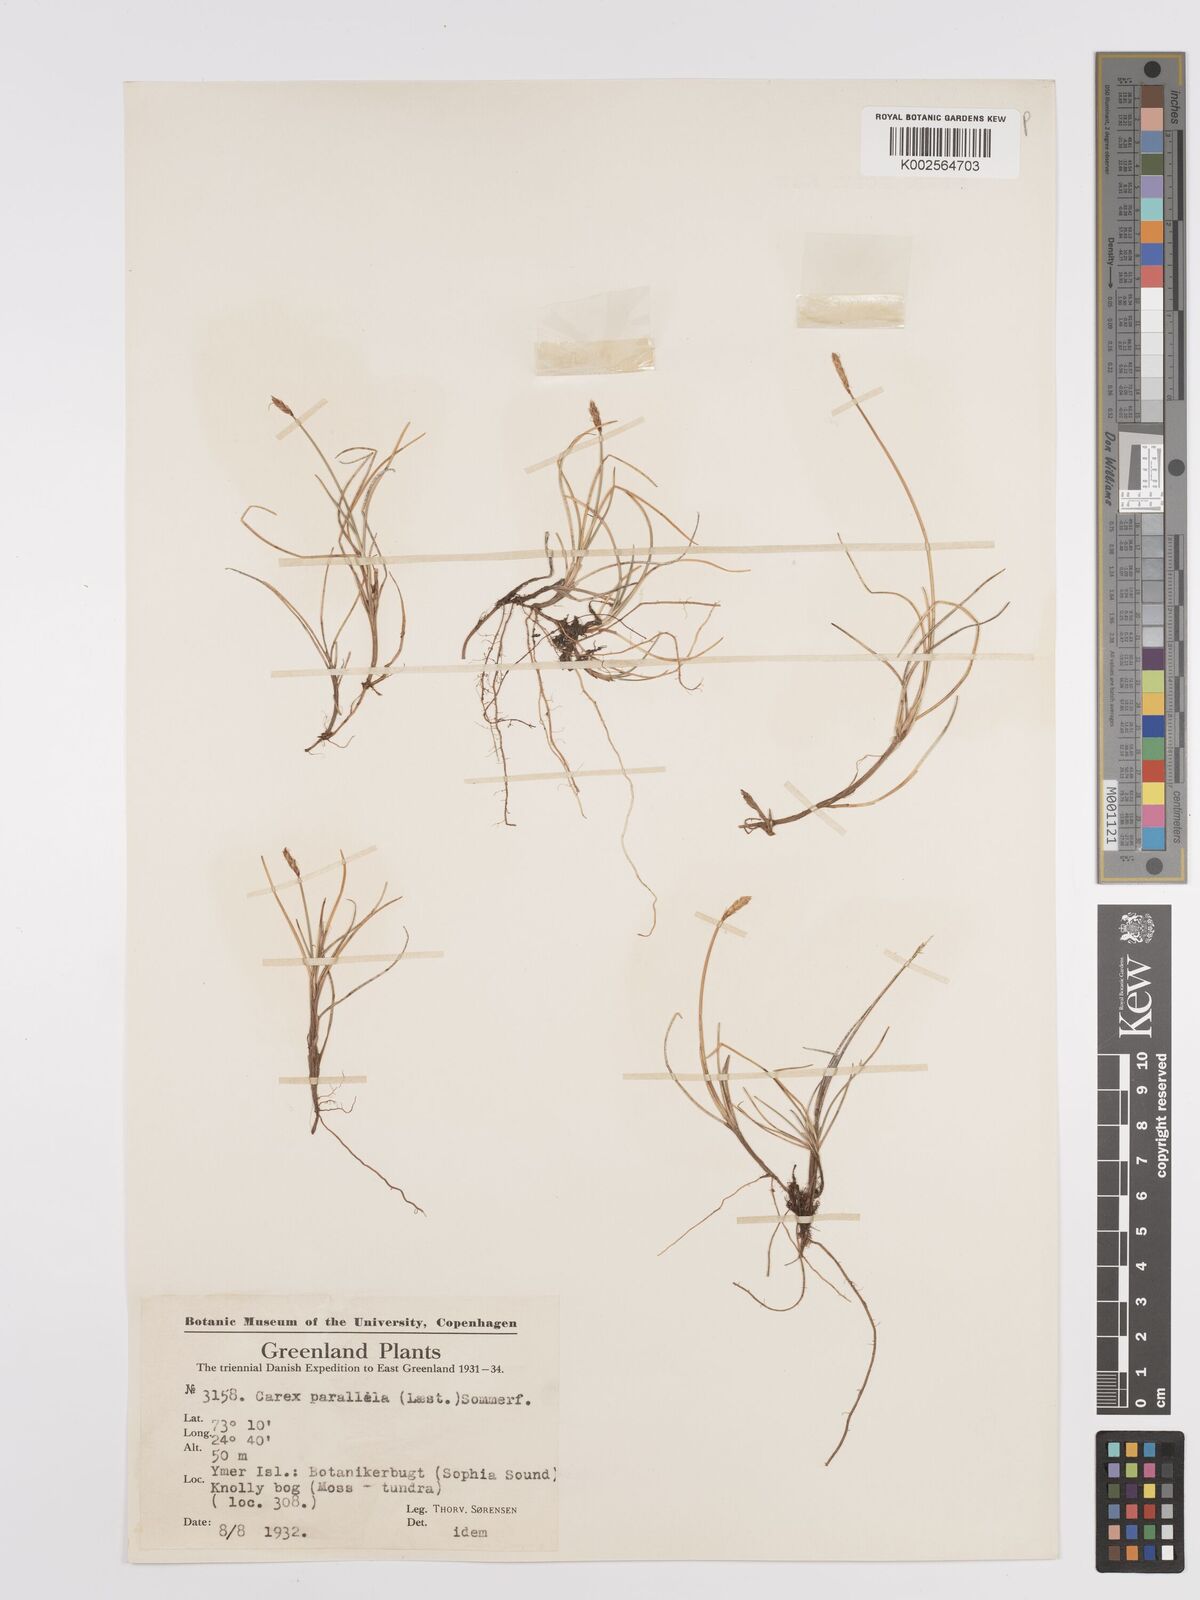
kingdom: Plantae
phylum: Tracheophyta
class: Liliopsida
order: Poales
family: Cyperaceae
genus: Carex
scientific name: Carex parallela
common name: Parallel sedge
